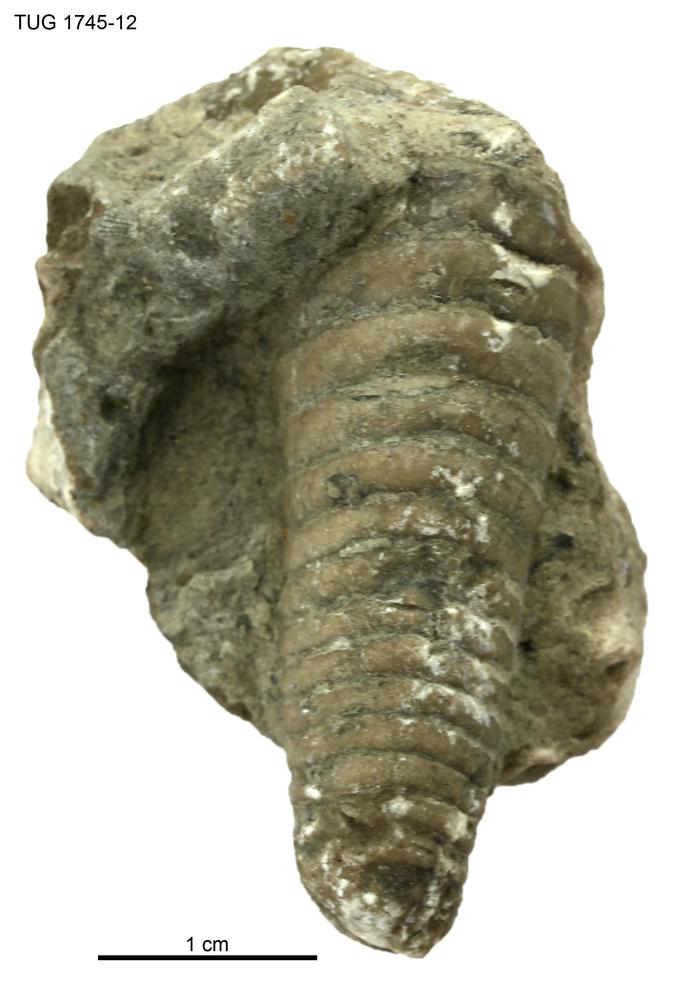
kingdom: Animalia
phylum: Mollusca
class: Cephalopoda
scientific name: Cephalopoda
